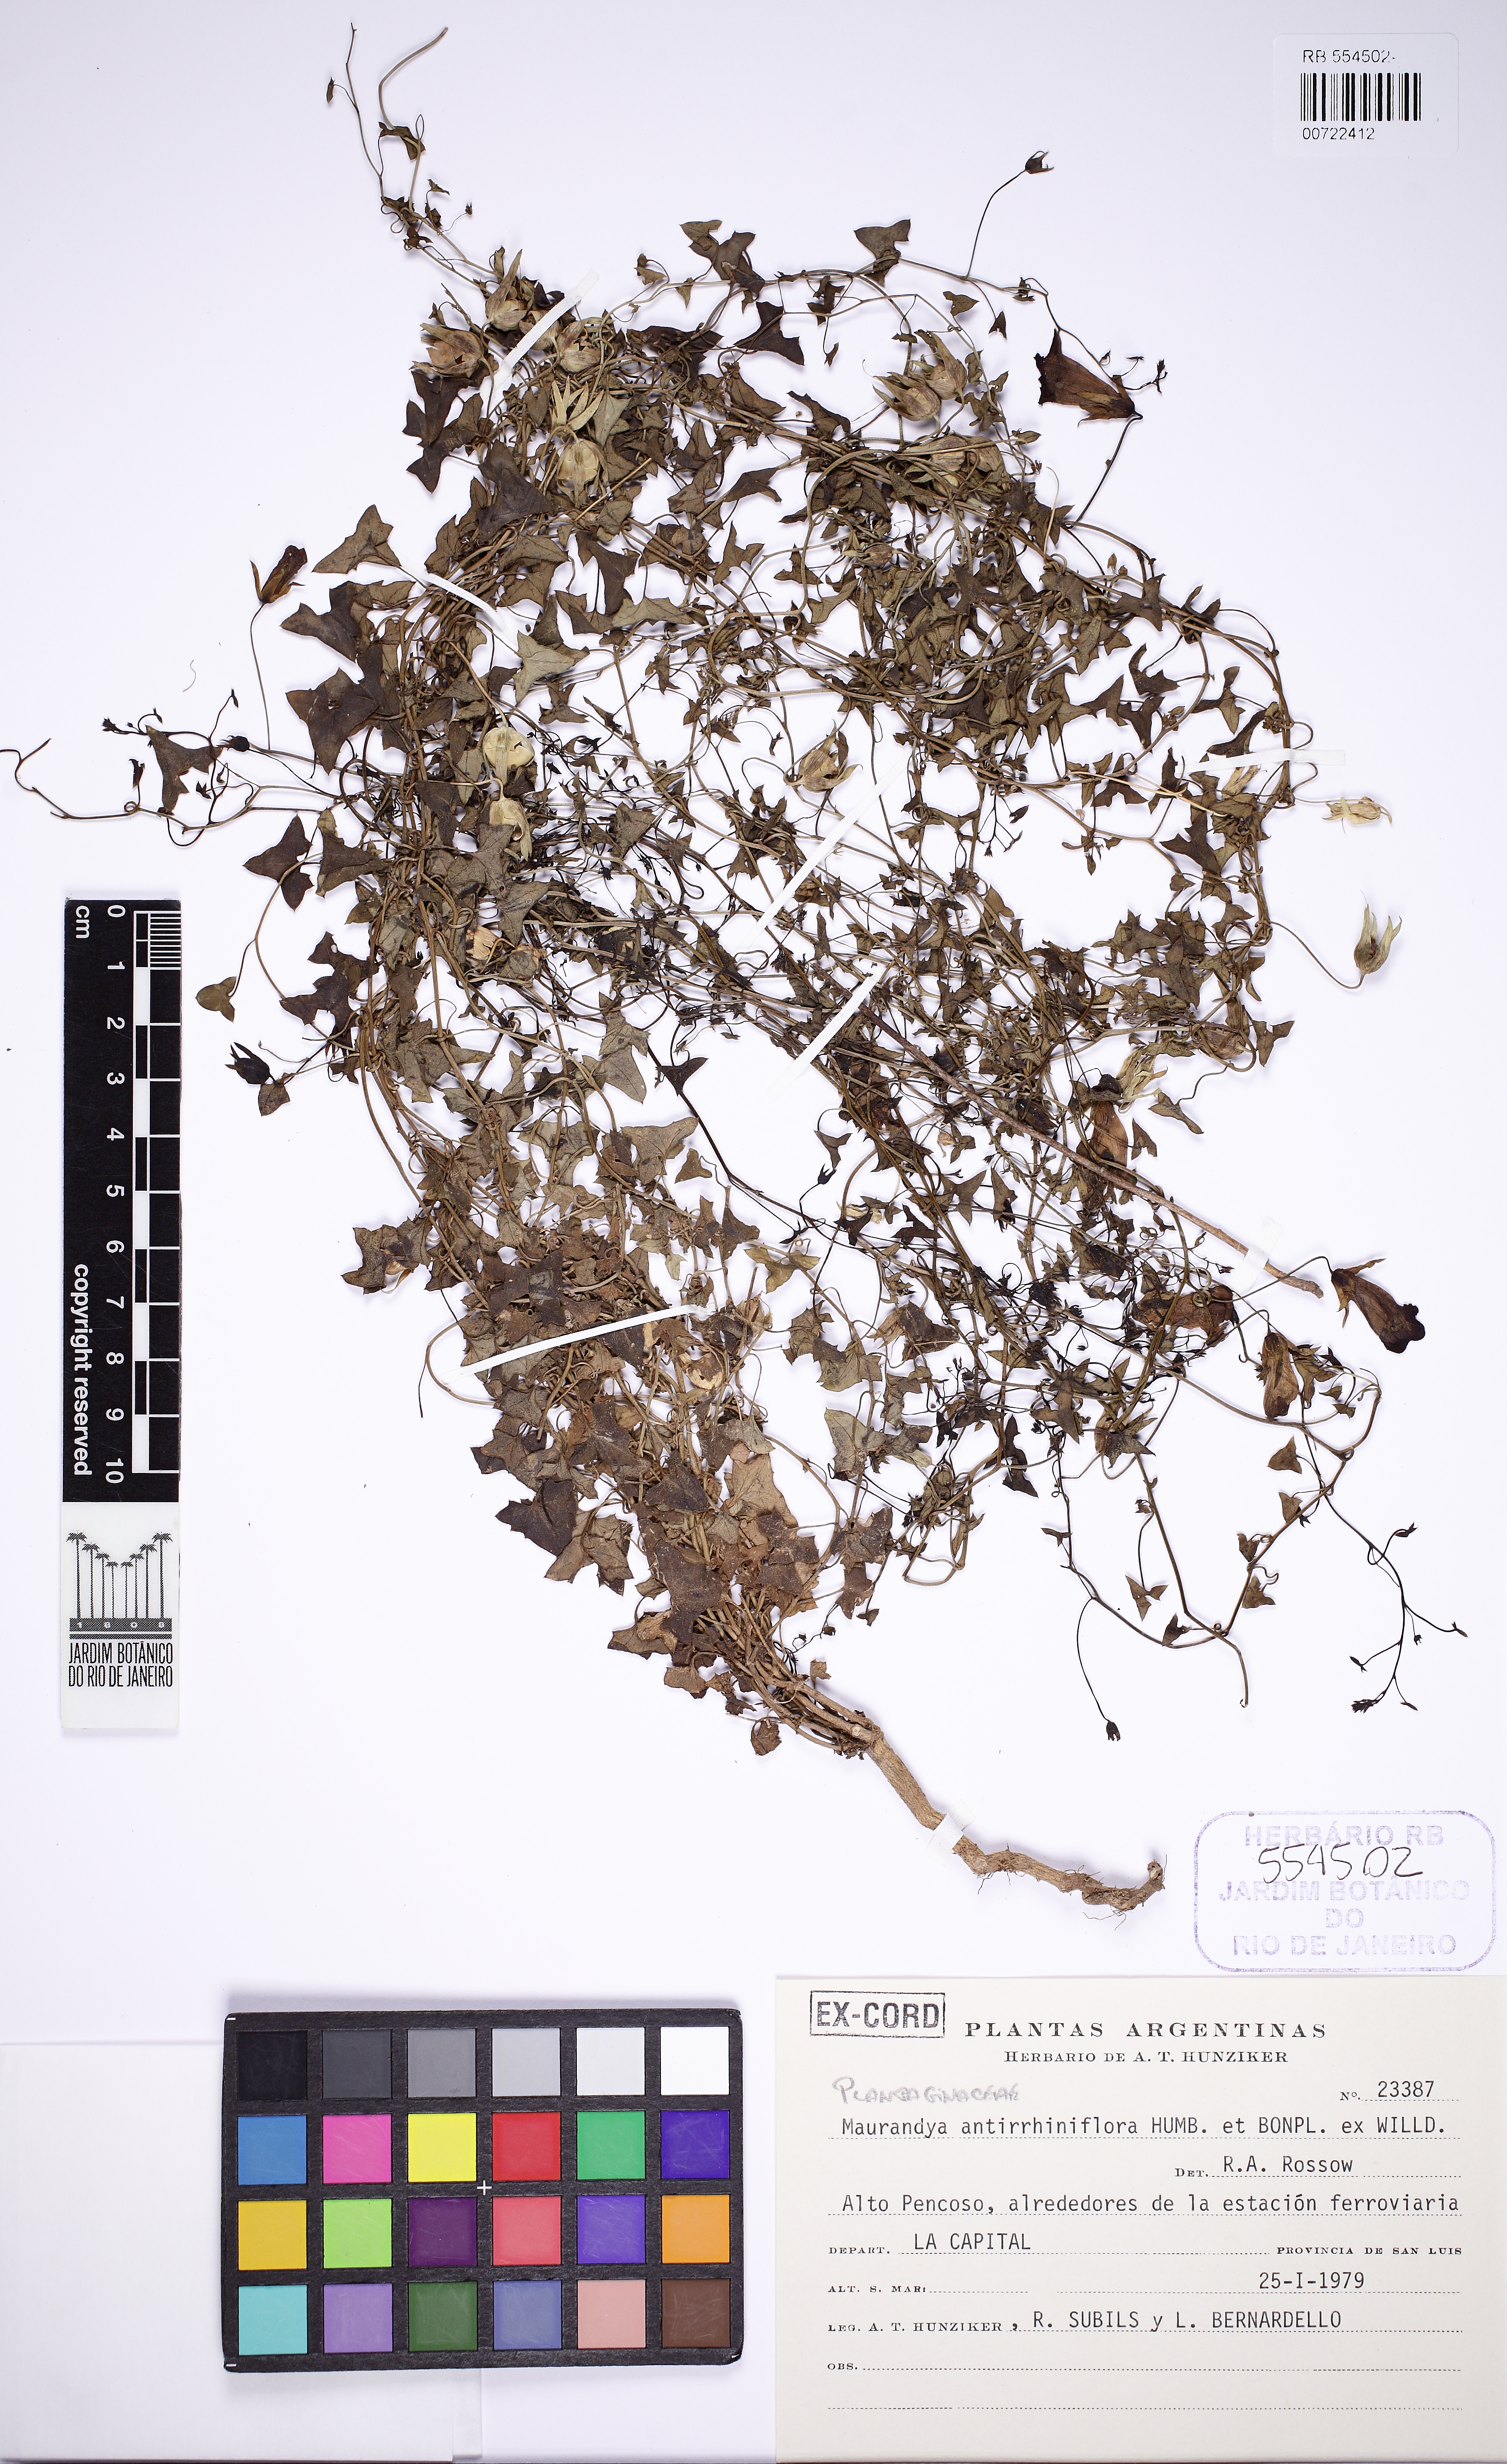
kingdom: Plantae
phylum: Tracheophyta
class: Magnoliopsida
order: Lamiales
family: Plantaginaceae
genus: Maurandella
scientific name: Maurandella antirrhiniflora
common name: Violet twining-snapdragon
